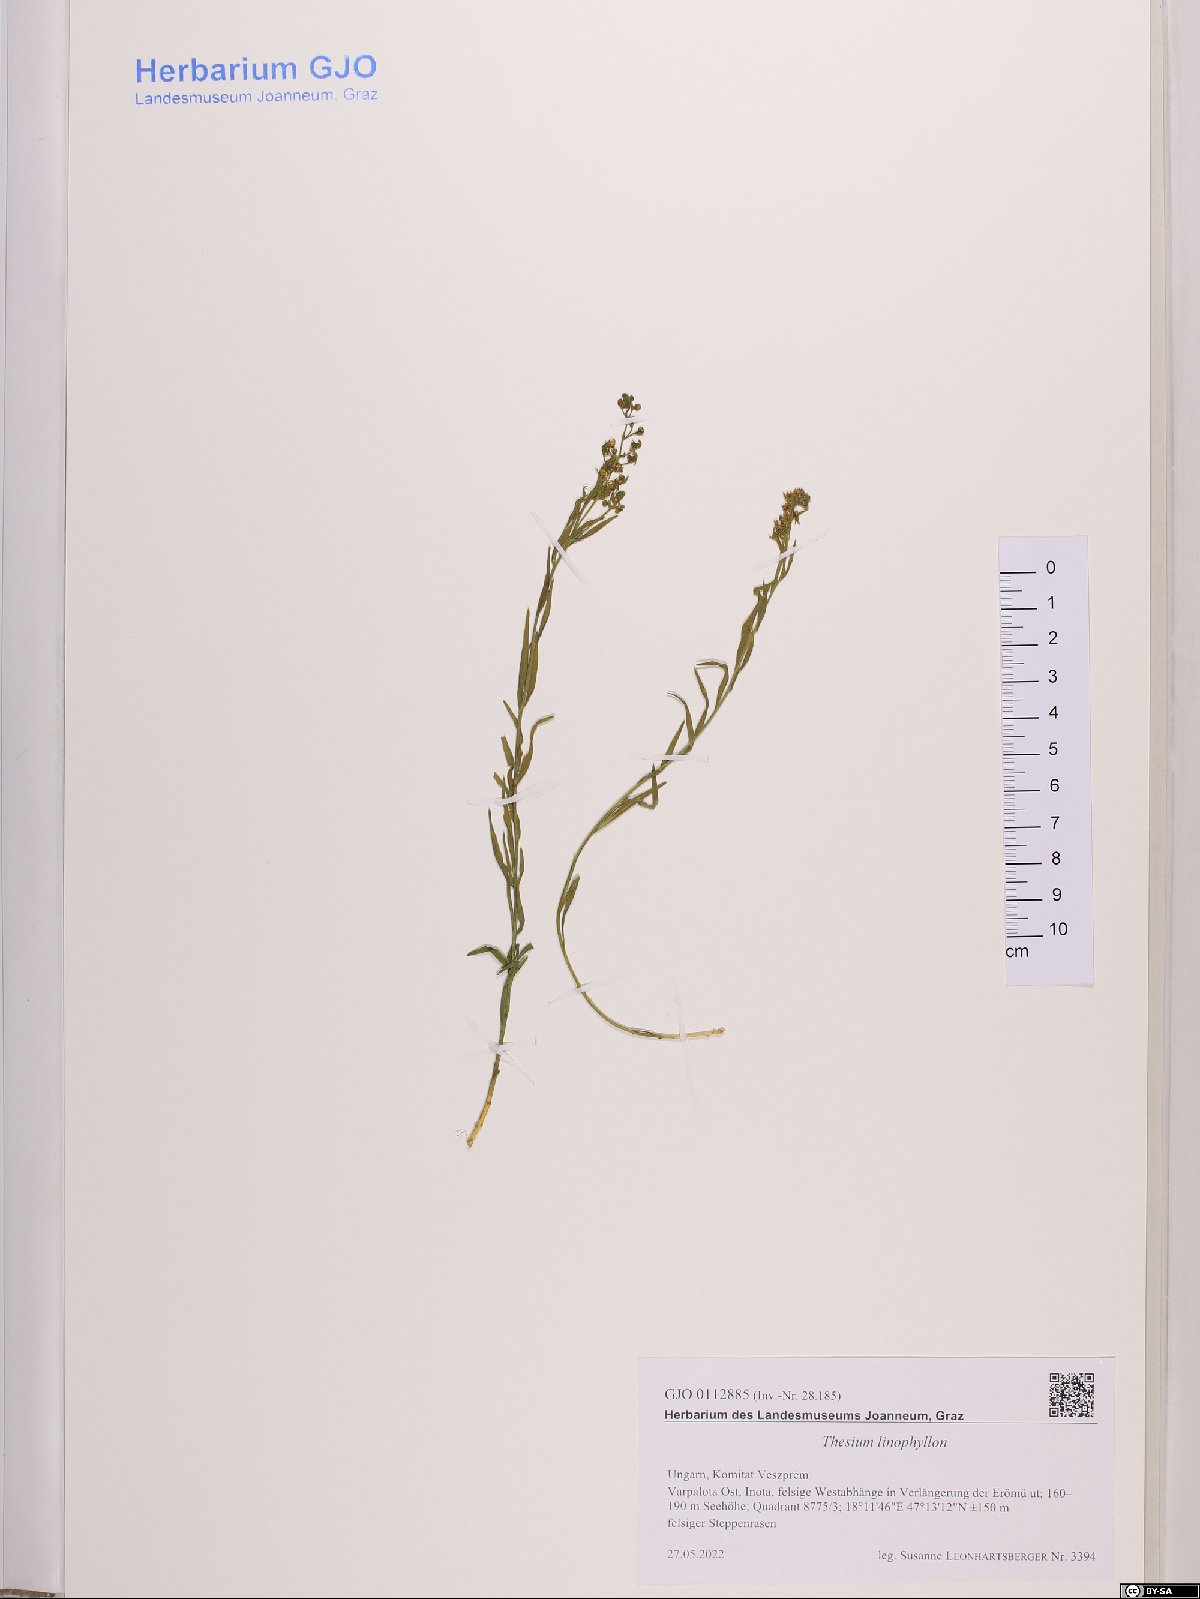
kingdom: Plantae
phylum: Tracheophyta
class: Magnoliopsida
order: Santalales
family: Thesiaceae
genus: Thesium
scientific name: Thesium linophyllon
